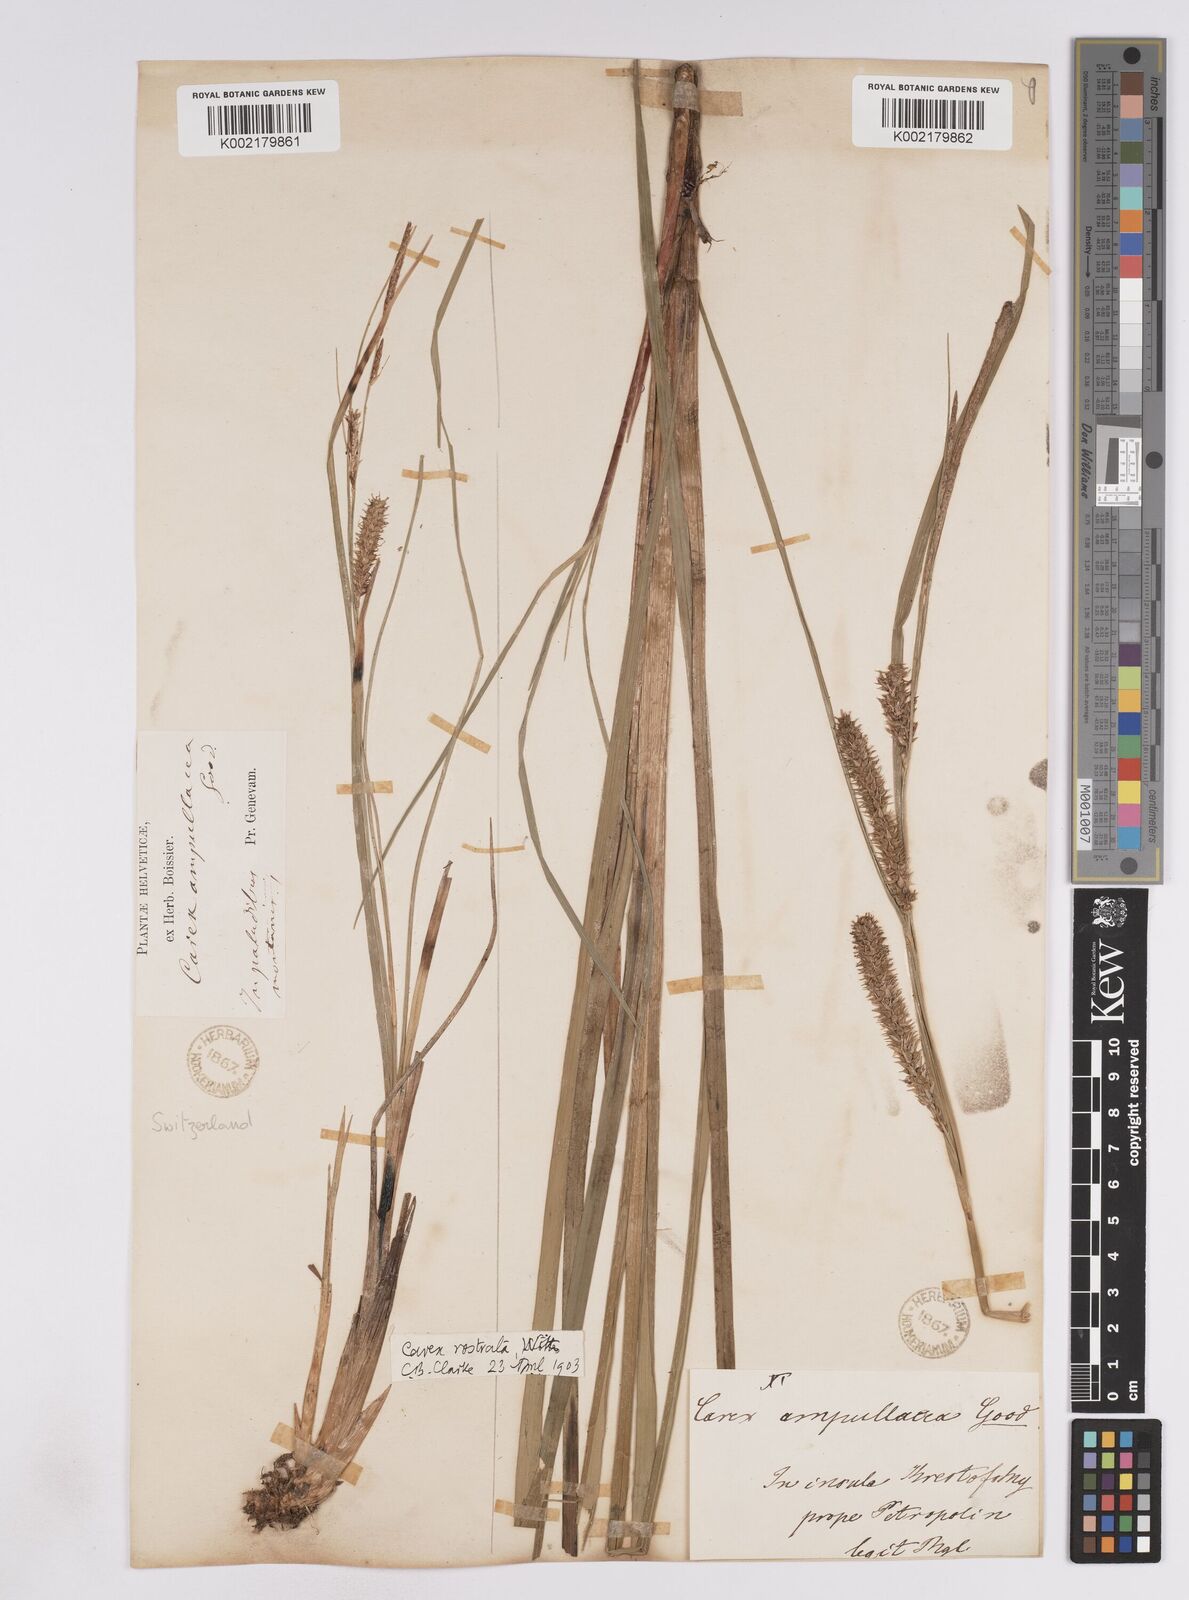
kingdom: Plantae
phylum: Tracheophyta
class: Liliopsida
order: Poales
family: Cyperaceae
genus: Carex
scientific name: Carex rostrata
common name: Bottle sedge
